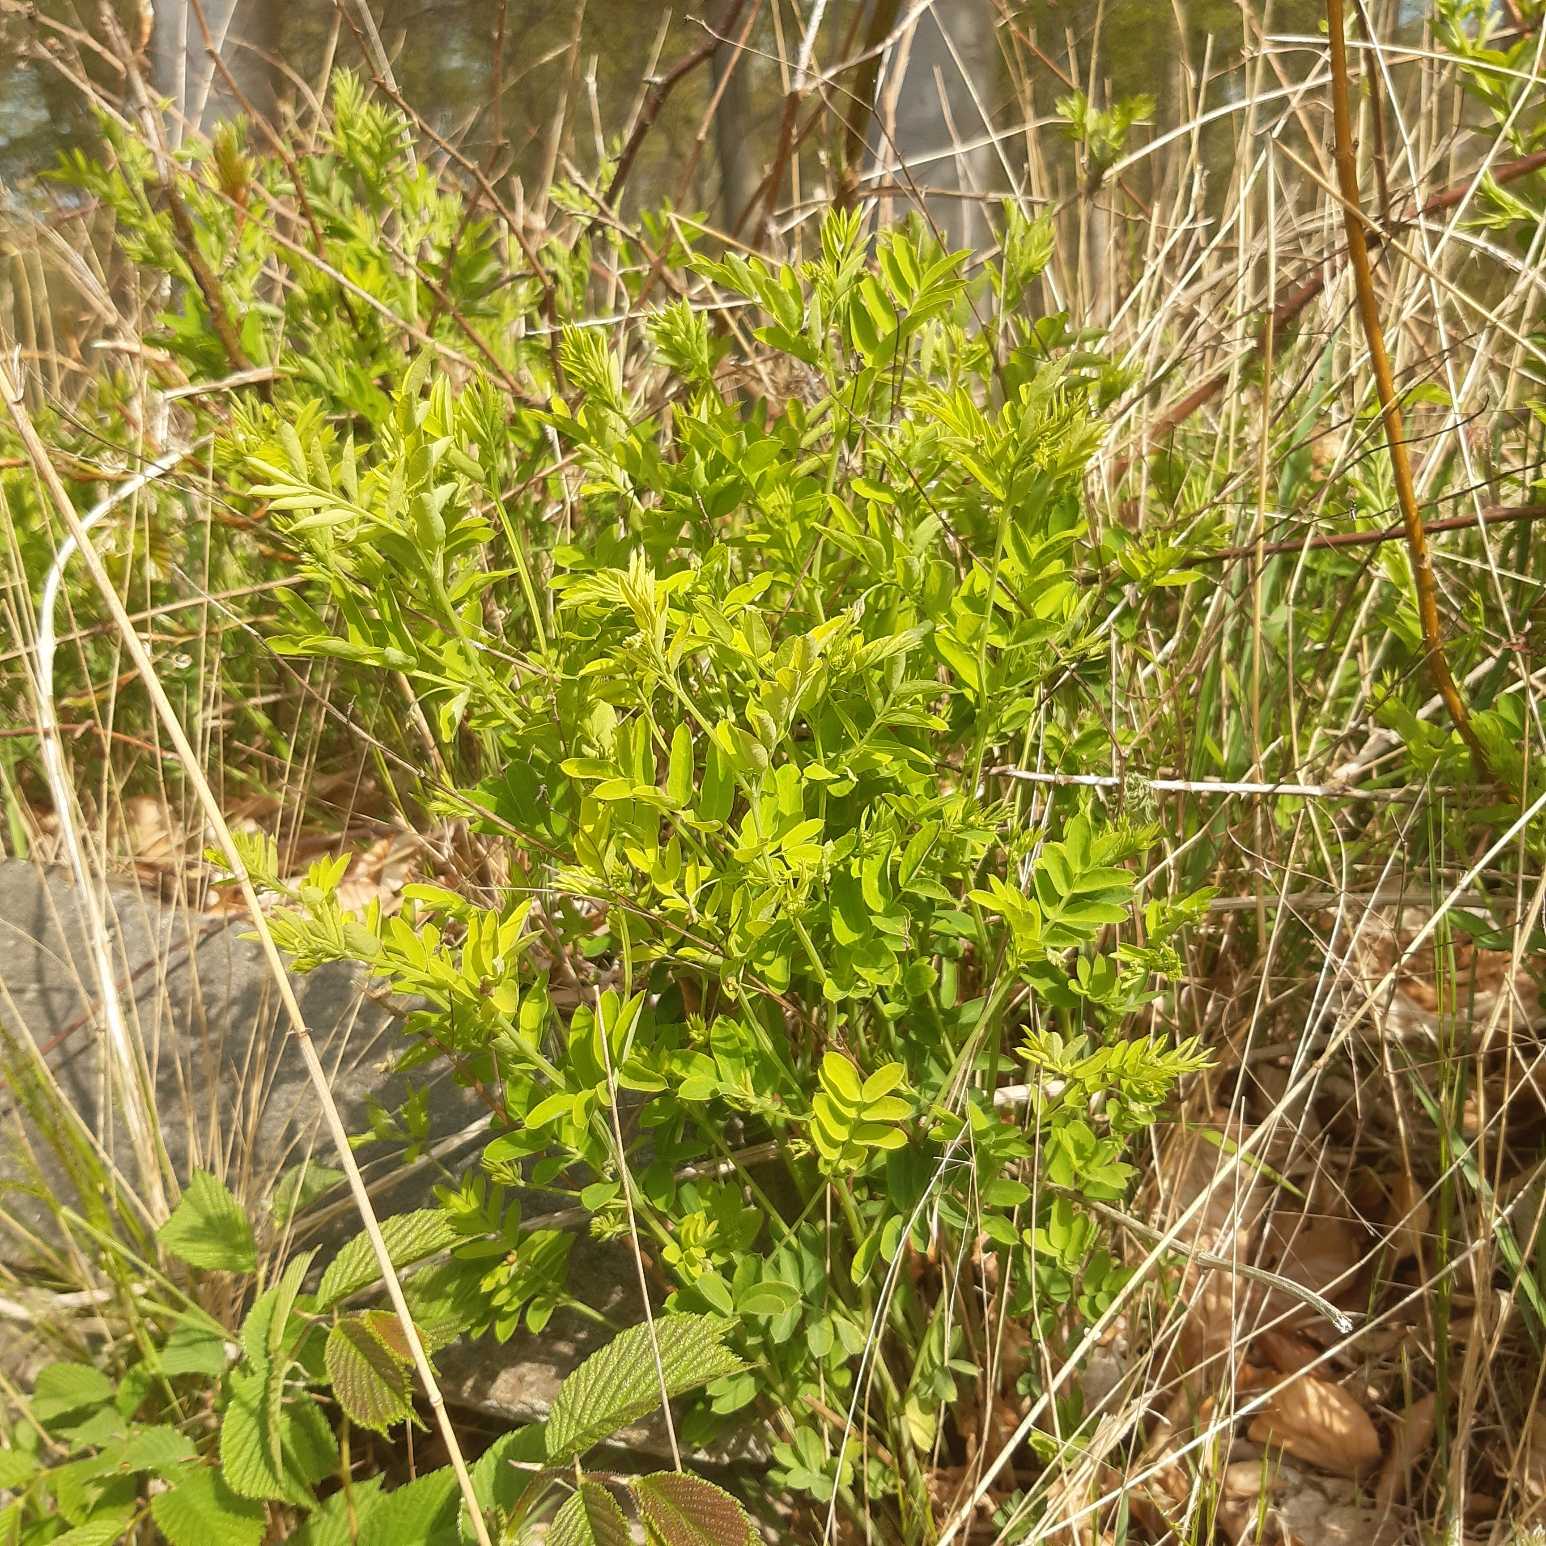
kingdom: Plantae
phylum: Tracheophyta
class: Magnoliopsida
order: Fabales
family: Fabaceae
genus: Lathyrus
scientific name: Lathyrus niger
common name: Sort fladbælg
